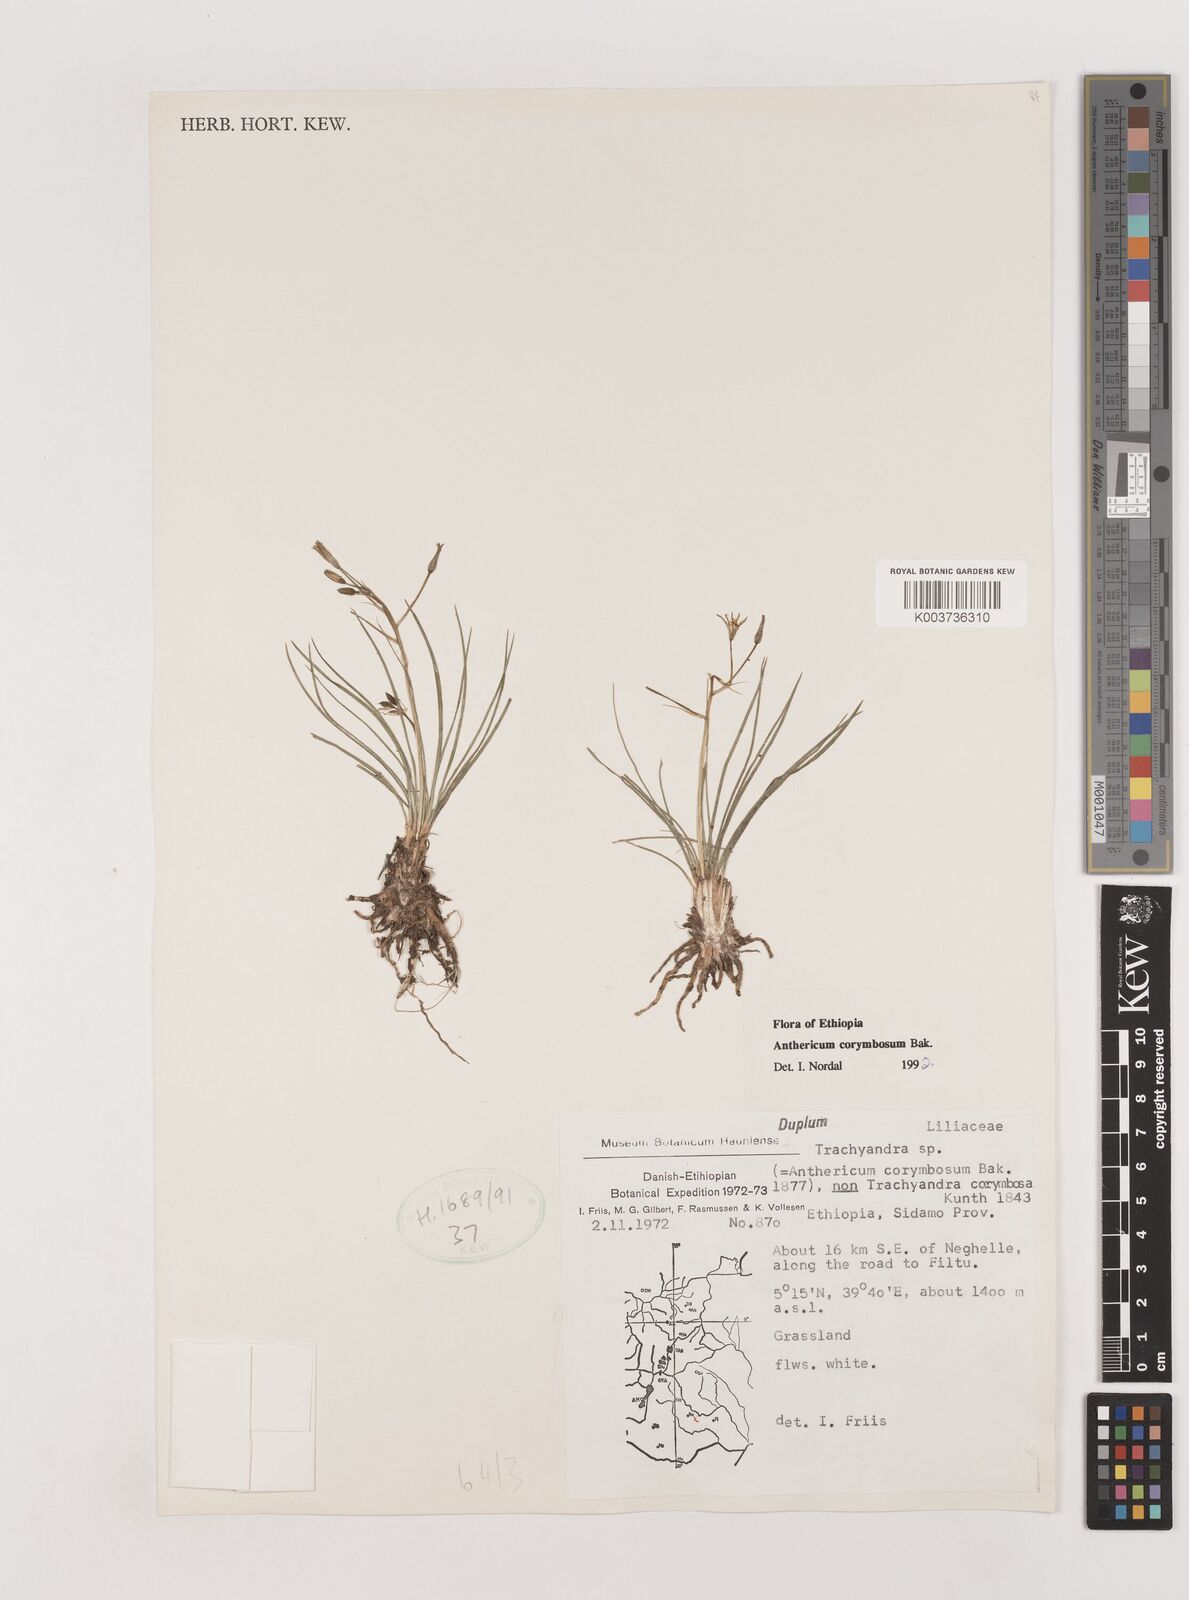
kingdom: Plantae
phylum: Tracheophyta
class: Liliopsida
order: Asparagales
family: Asparagaceae
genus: Anthericum
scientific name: Anthericum corymbosum
